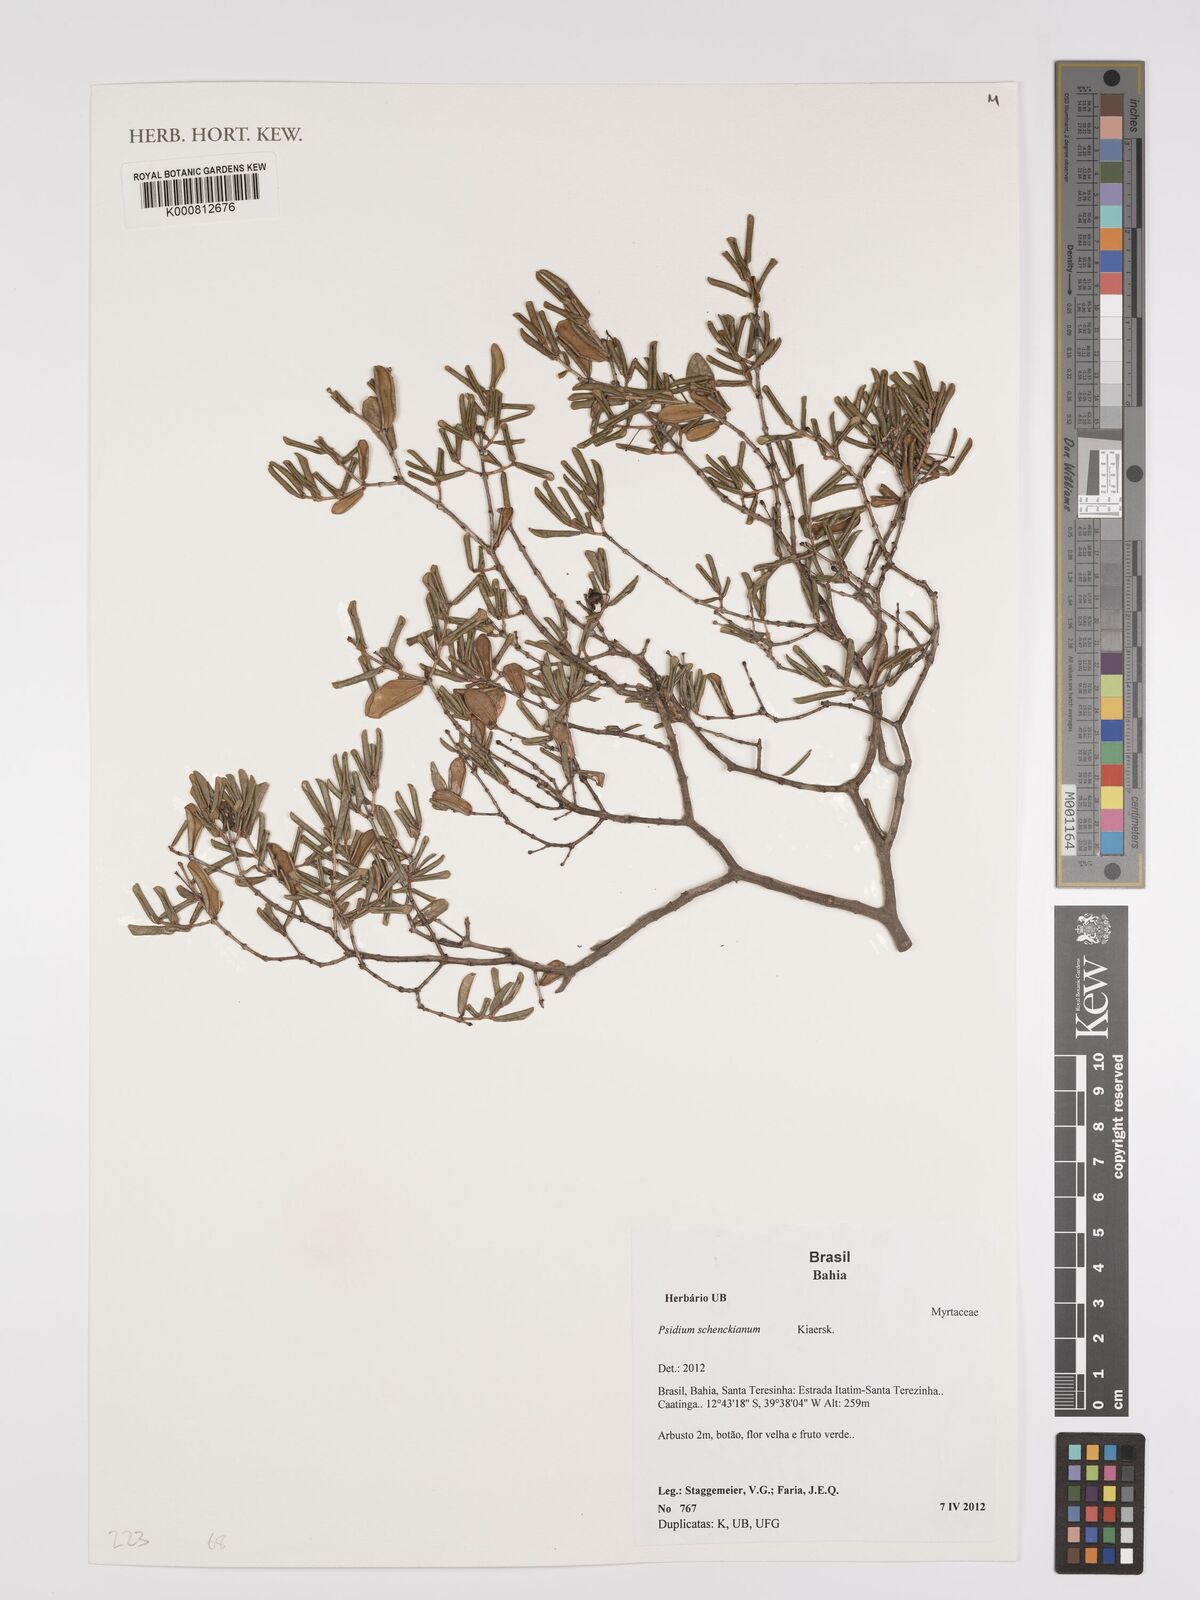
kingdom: Plantae
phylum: Tracheophyta
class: Magnoliopsida
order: Myrtales
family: Myrtaceae
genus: Psidium
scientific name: Psidium schenckianum
